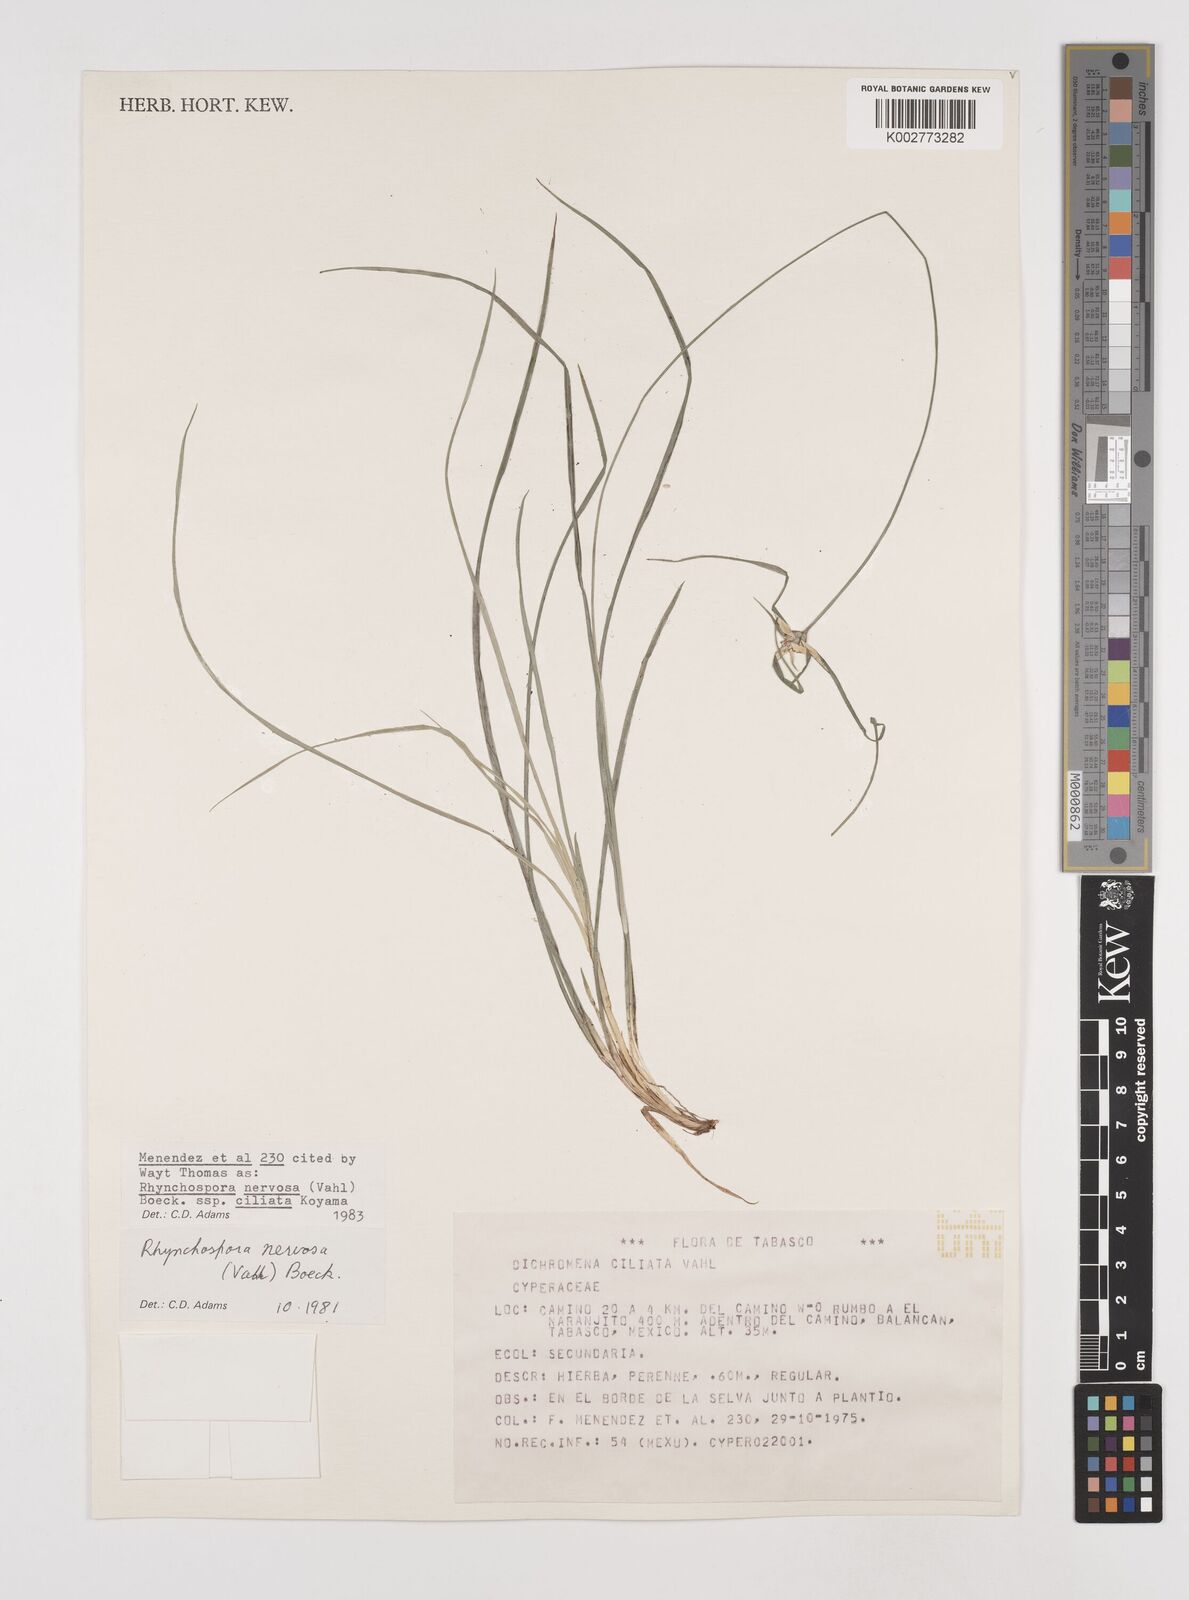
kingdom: Plantae
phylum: Tracheophyta
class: Liliopsida
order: Poales
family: Cyperaceae
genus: Rhynchospora
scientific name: Rhynchospora pura
